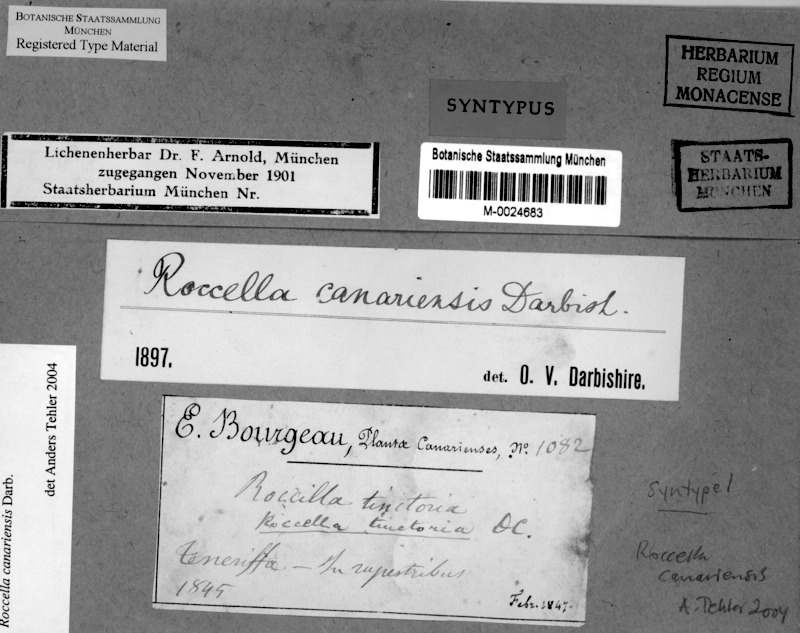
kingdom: Fungi
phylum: Ascomycota
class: Arthoniomycetes
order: Arthoniales
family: Roccellaceae
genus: Roccella
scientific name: Roccella canariensis
